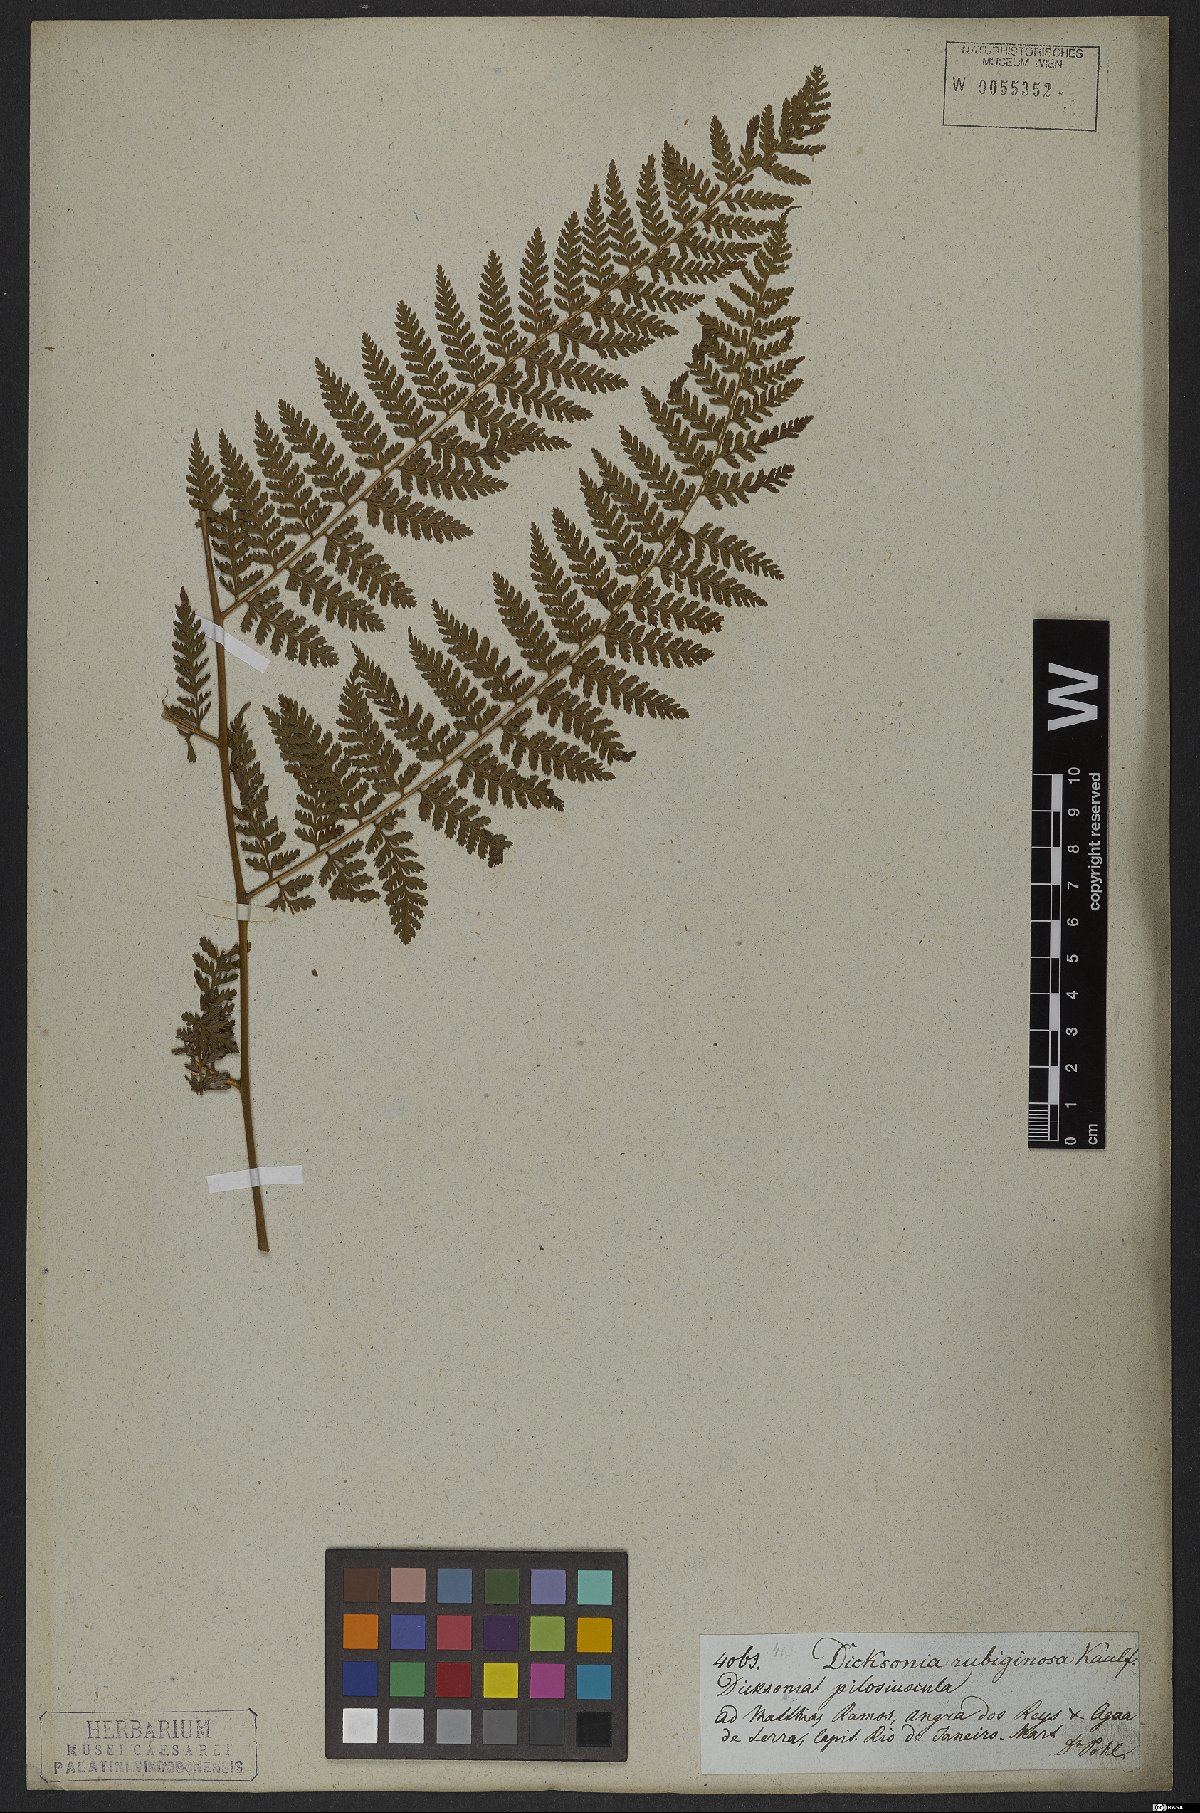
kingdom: Plantae
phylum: Tracheophyta
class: Polypodiopsida
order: Polypodiales
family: Dennstaedtiaceae
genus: Dennstaedtia
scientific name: Dennstaedtia cicutaria
